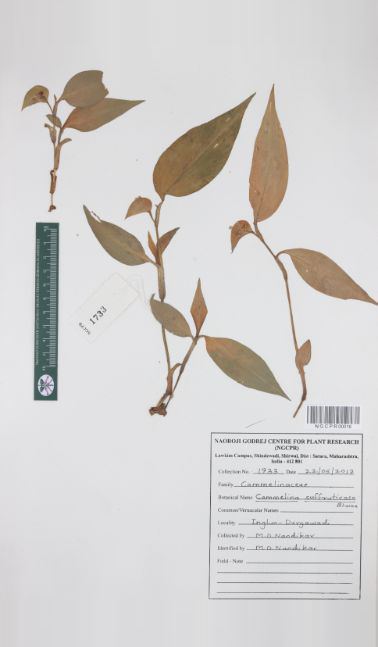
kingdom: Plantae
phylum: Tracheophyta
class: Liliopsida
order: Commelinales
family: Commelinaceae
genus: Commelina
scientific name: Commelina suffruticosa
